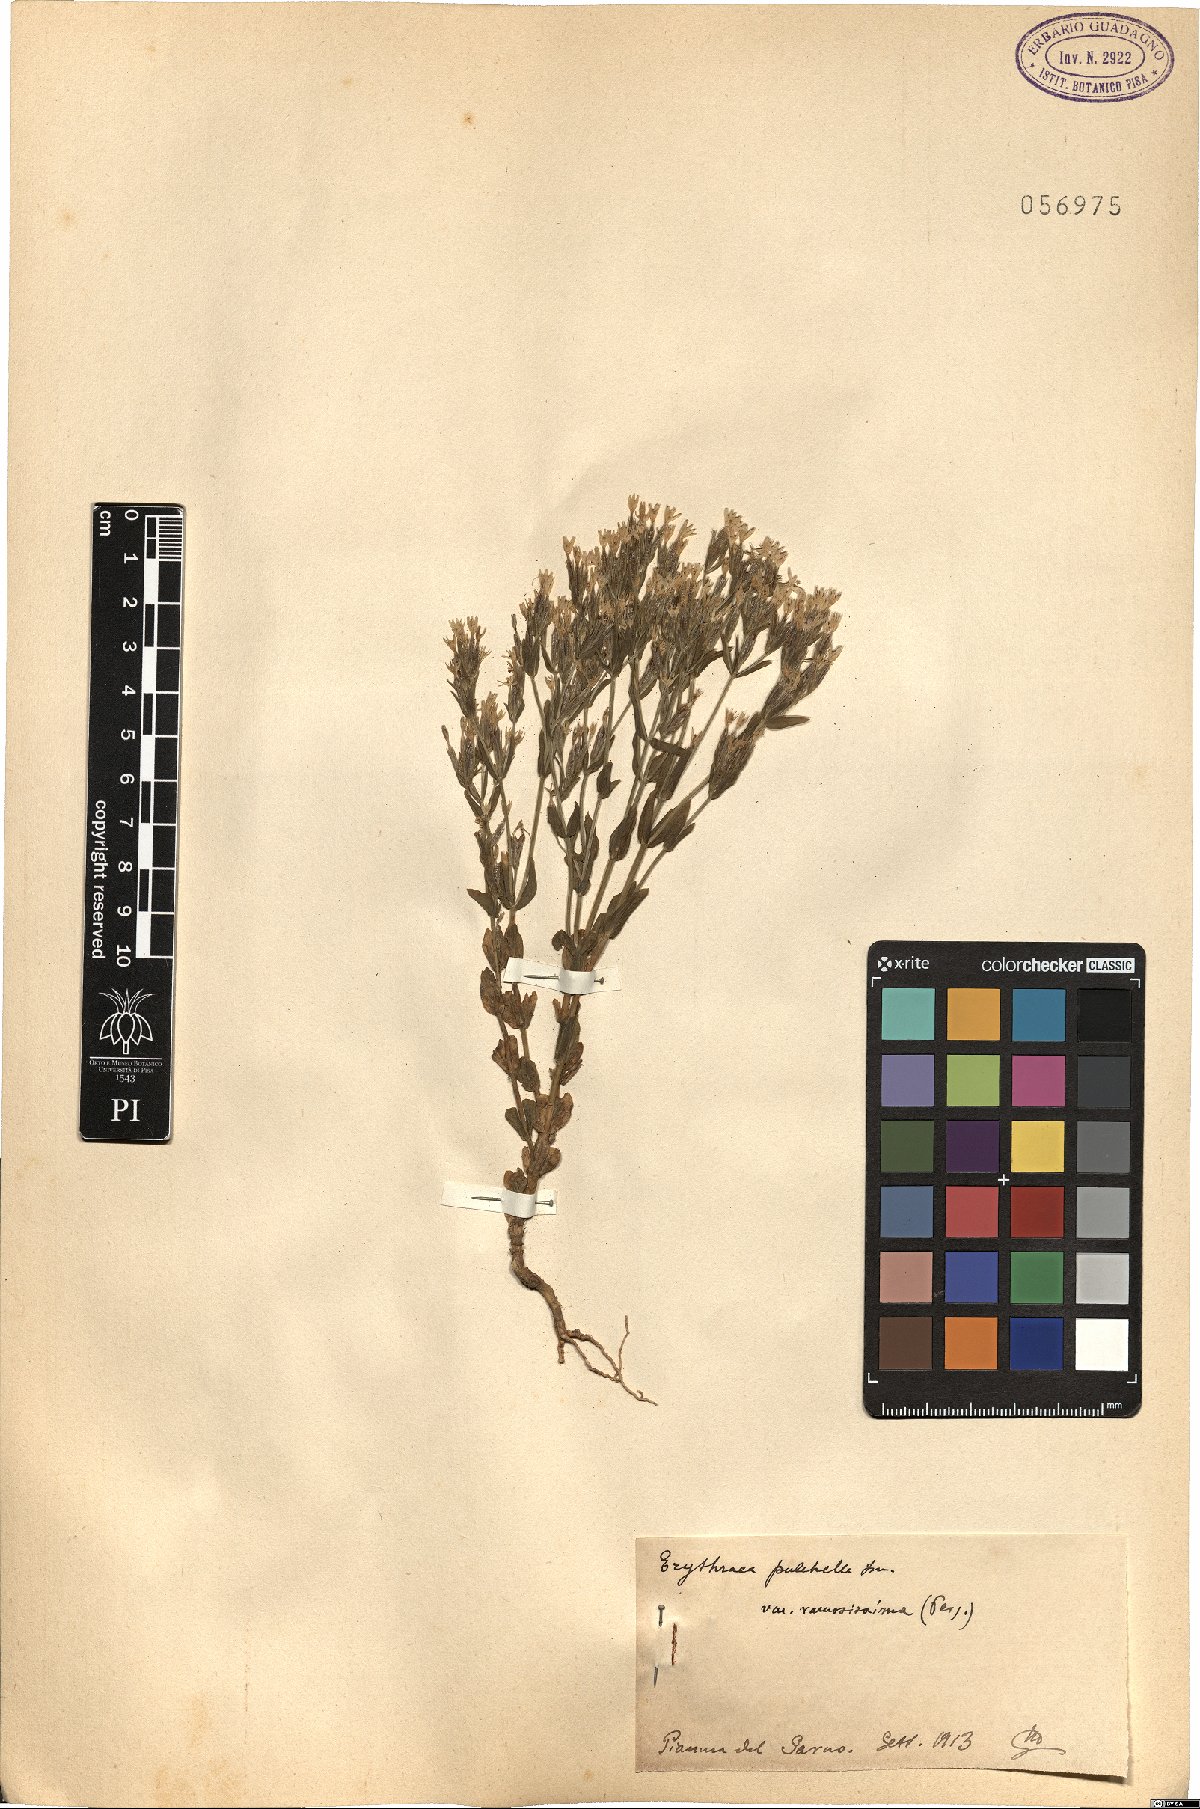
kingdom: Plantae
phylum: Tracheophyta
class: Magnoliopsida
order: Gentianales
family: Gentianaceae
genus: Centaurium
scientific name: Centaurium pulchellum
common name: Lesser centaury
